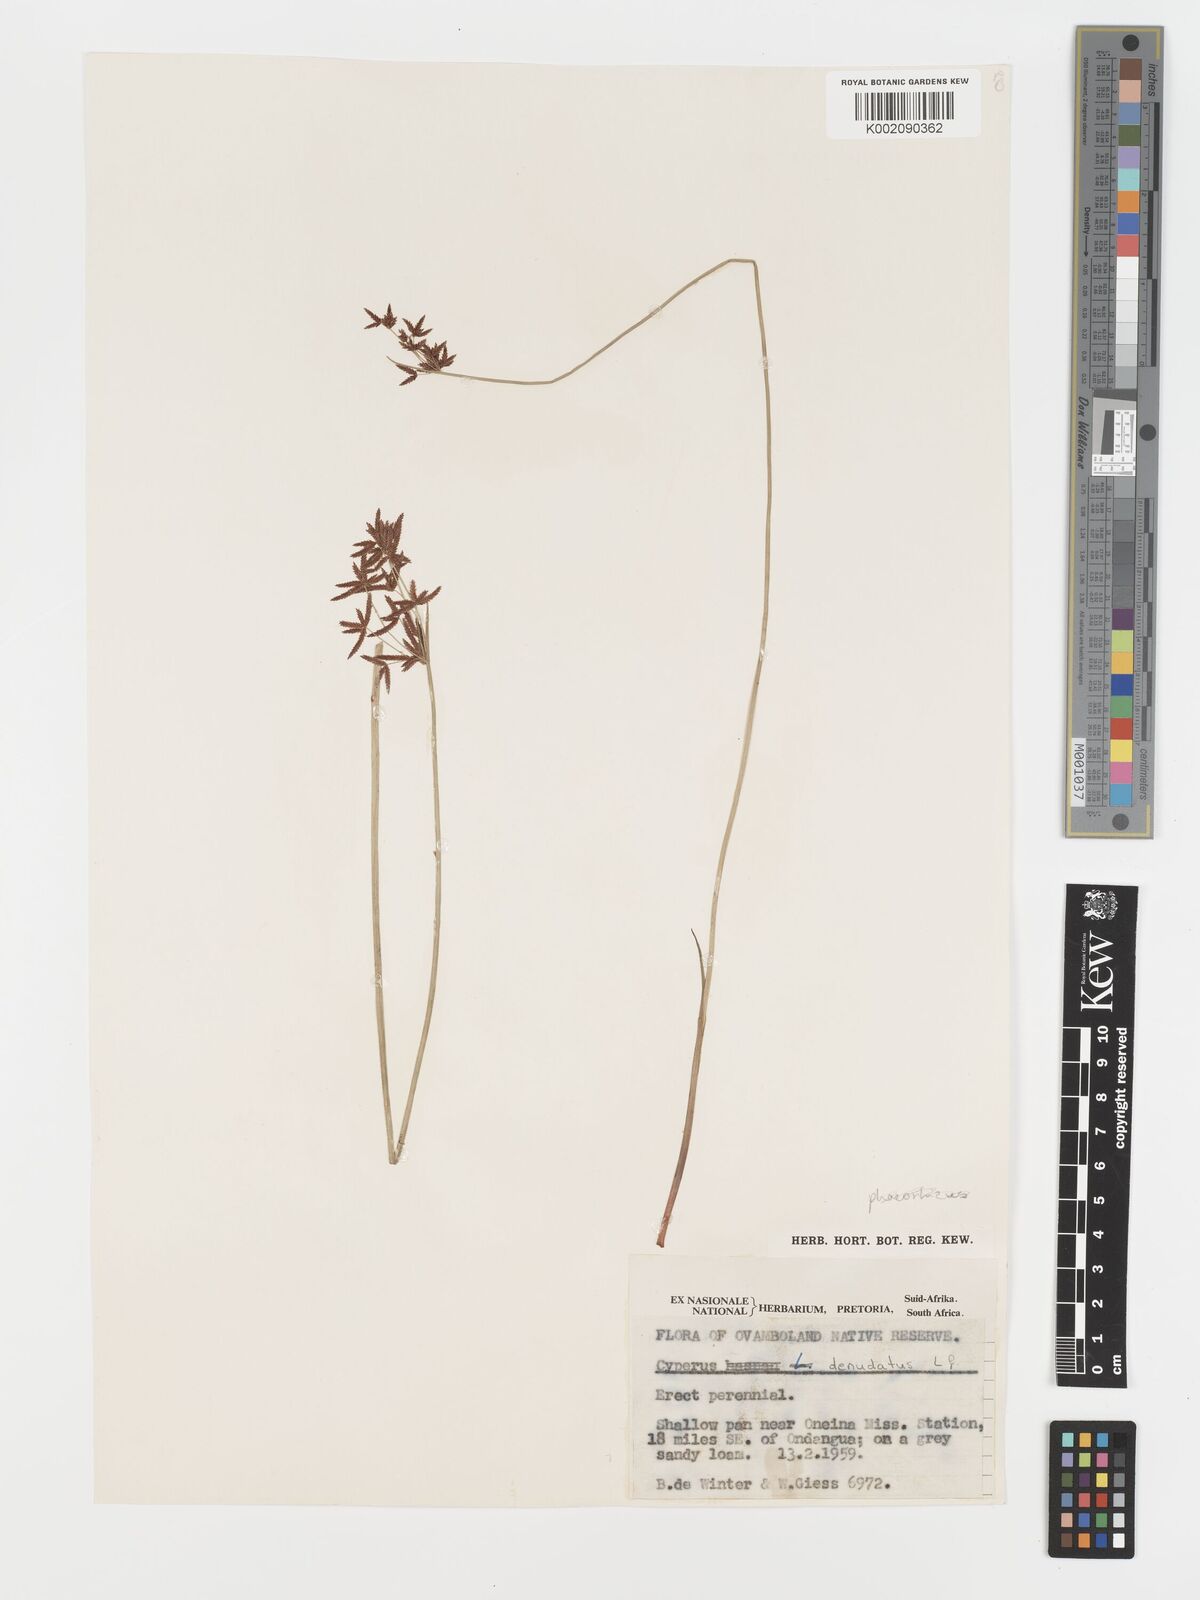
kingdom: Plantae
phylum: Tracheophyta
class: Liliopsida
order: Poales
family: Cyperaceae
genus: Cyperus
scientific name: Cyperus haspan
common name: Haspan flatsedge
